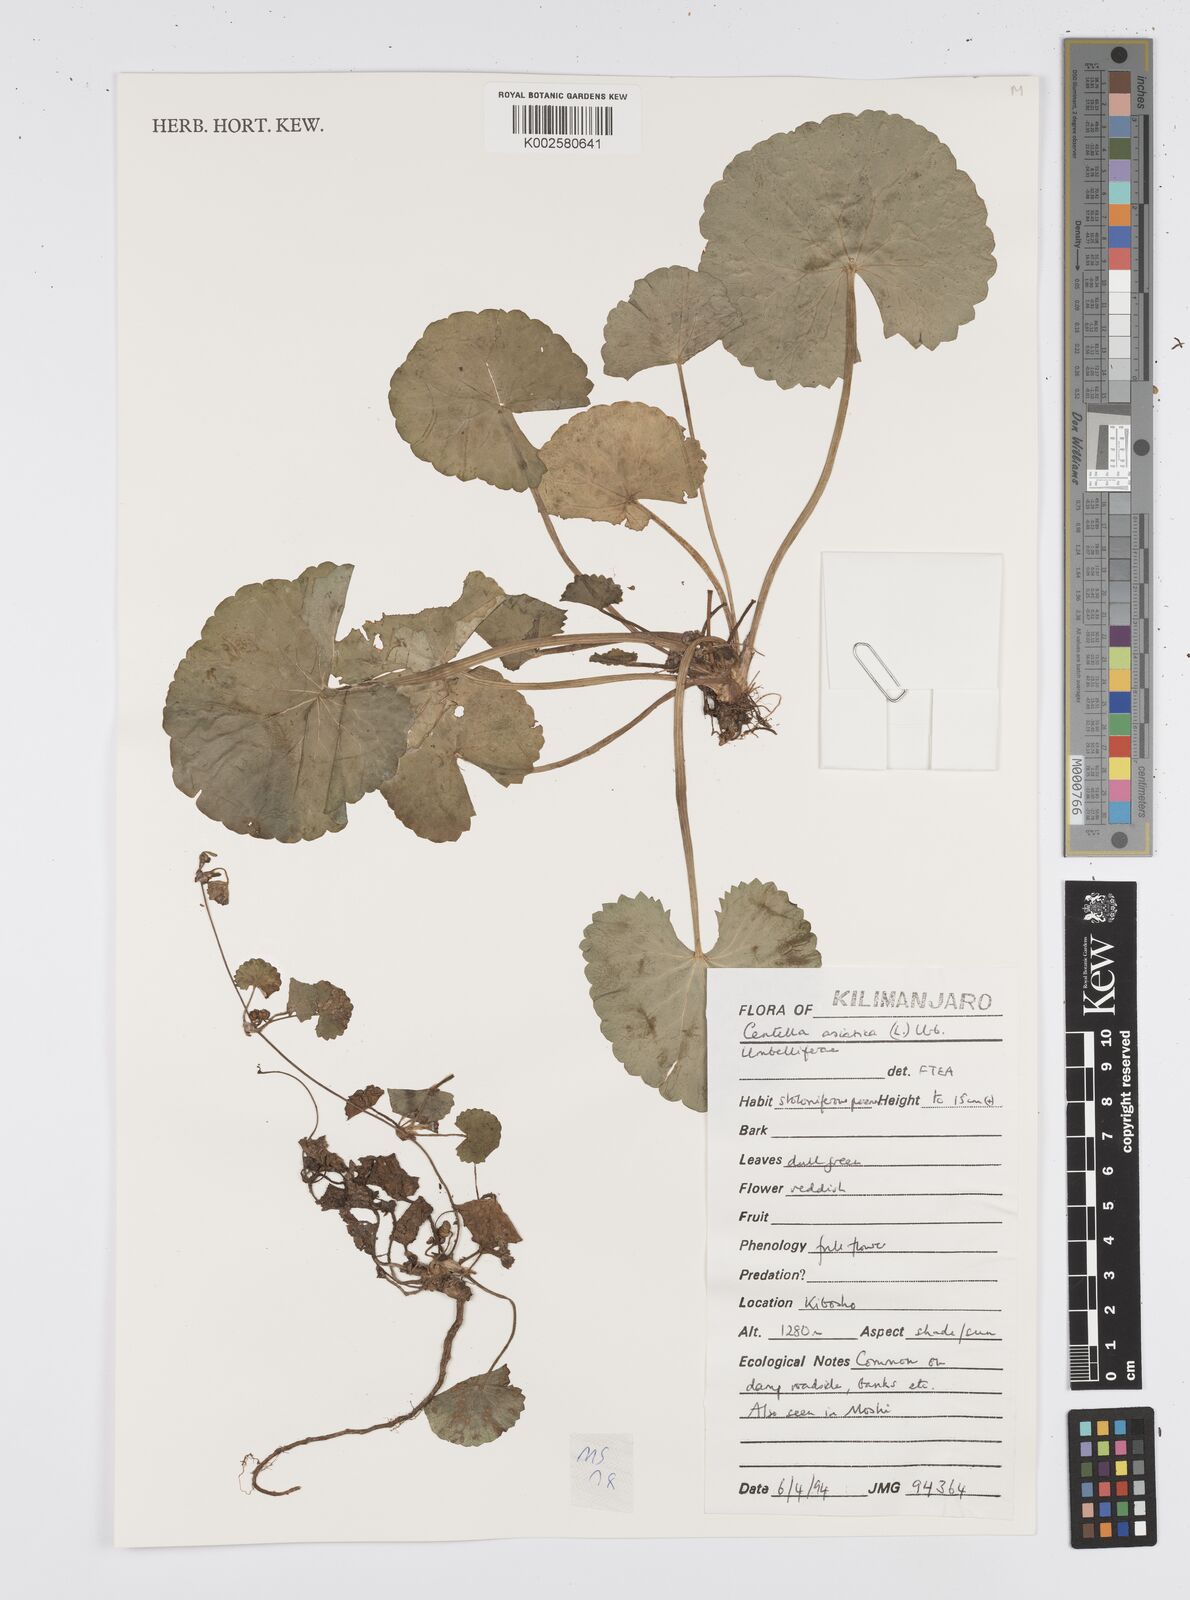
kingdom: Plantae
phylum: Tracheophyta
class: Magnoliopsida
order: Apiales
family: Apiaceae
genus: Centella
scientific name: Centella asiatica
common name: Spadeleaf
